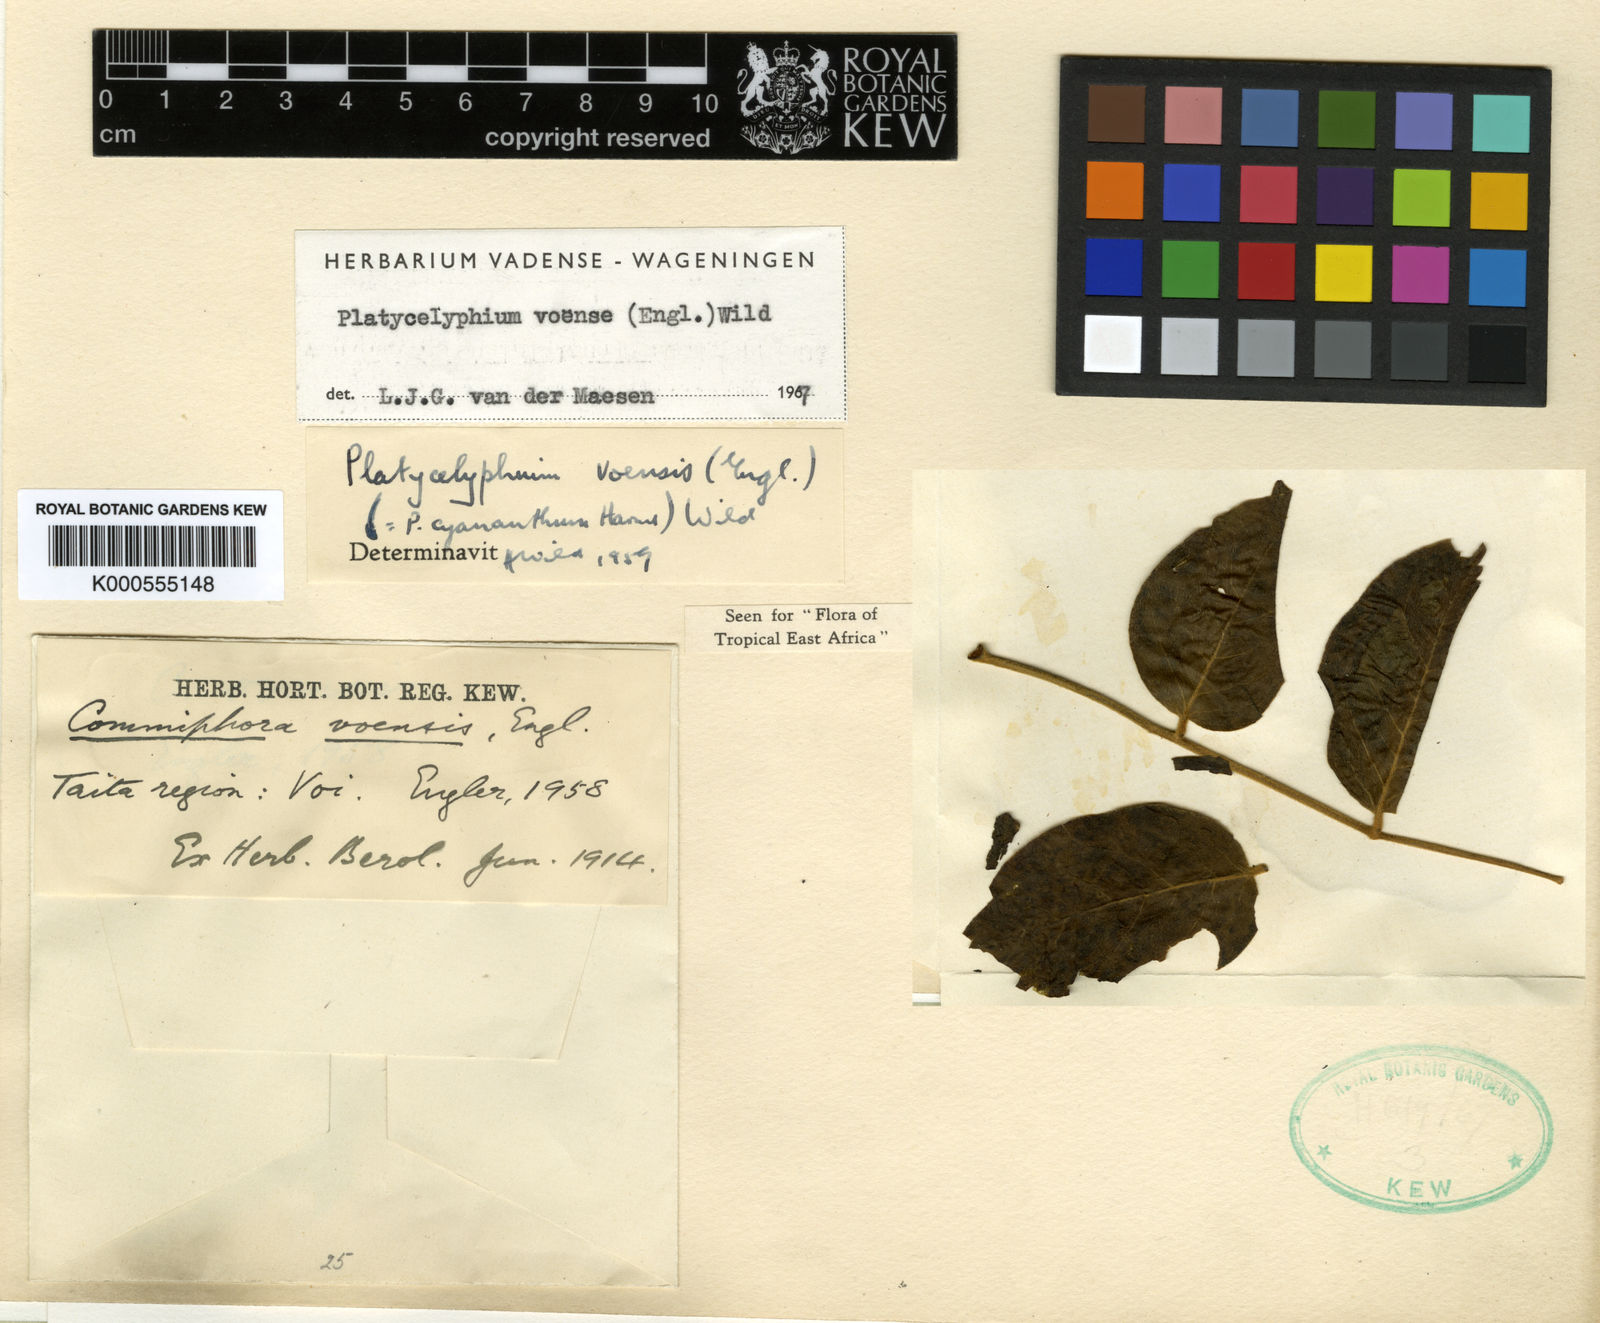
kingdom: Plantae
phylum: Tracheophyta
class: Magnoliopsida
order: Fabales
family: Fabaceae
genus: Platycelyphium
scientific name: Platycelyphium voense
